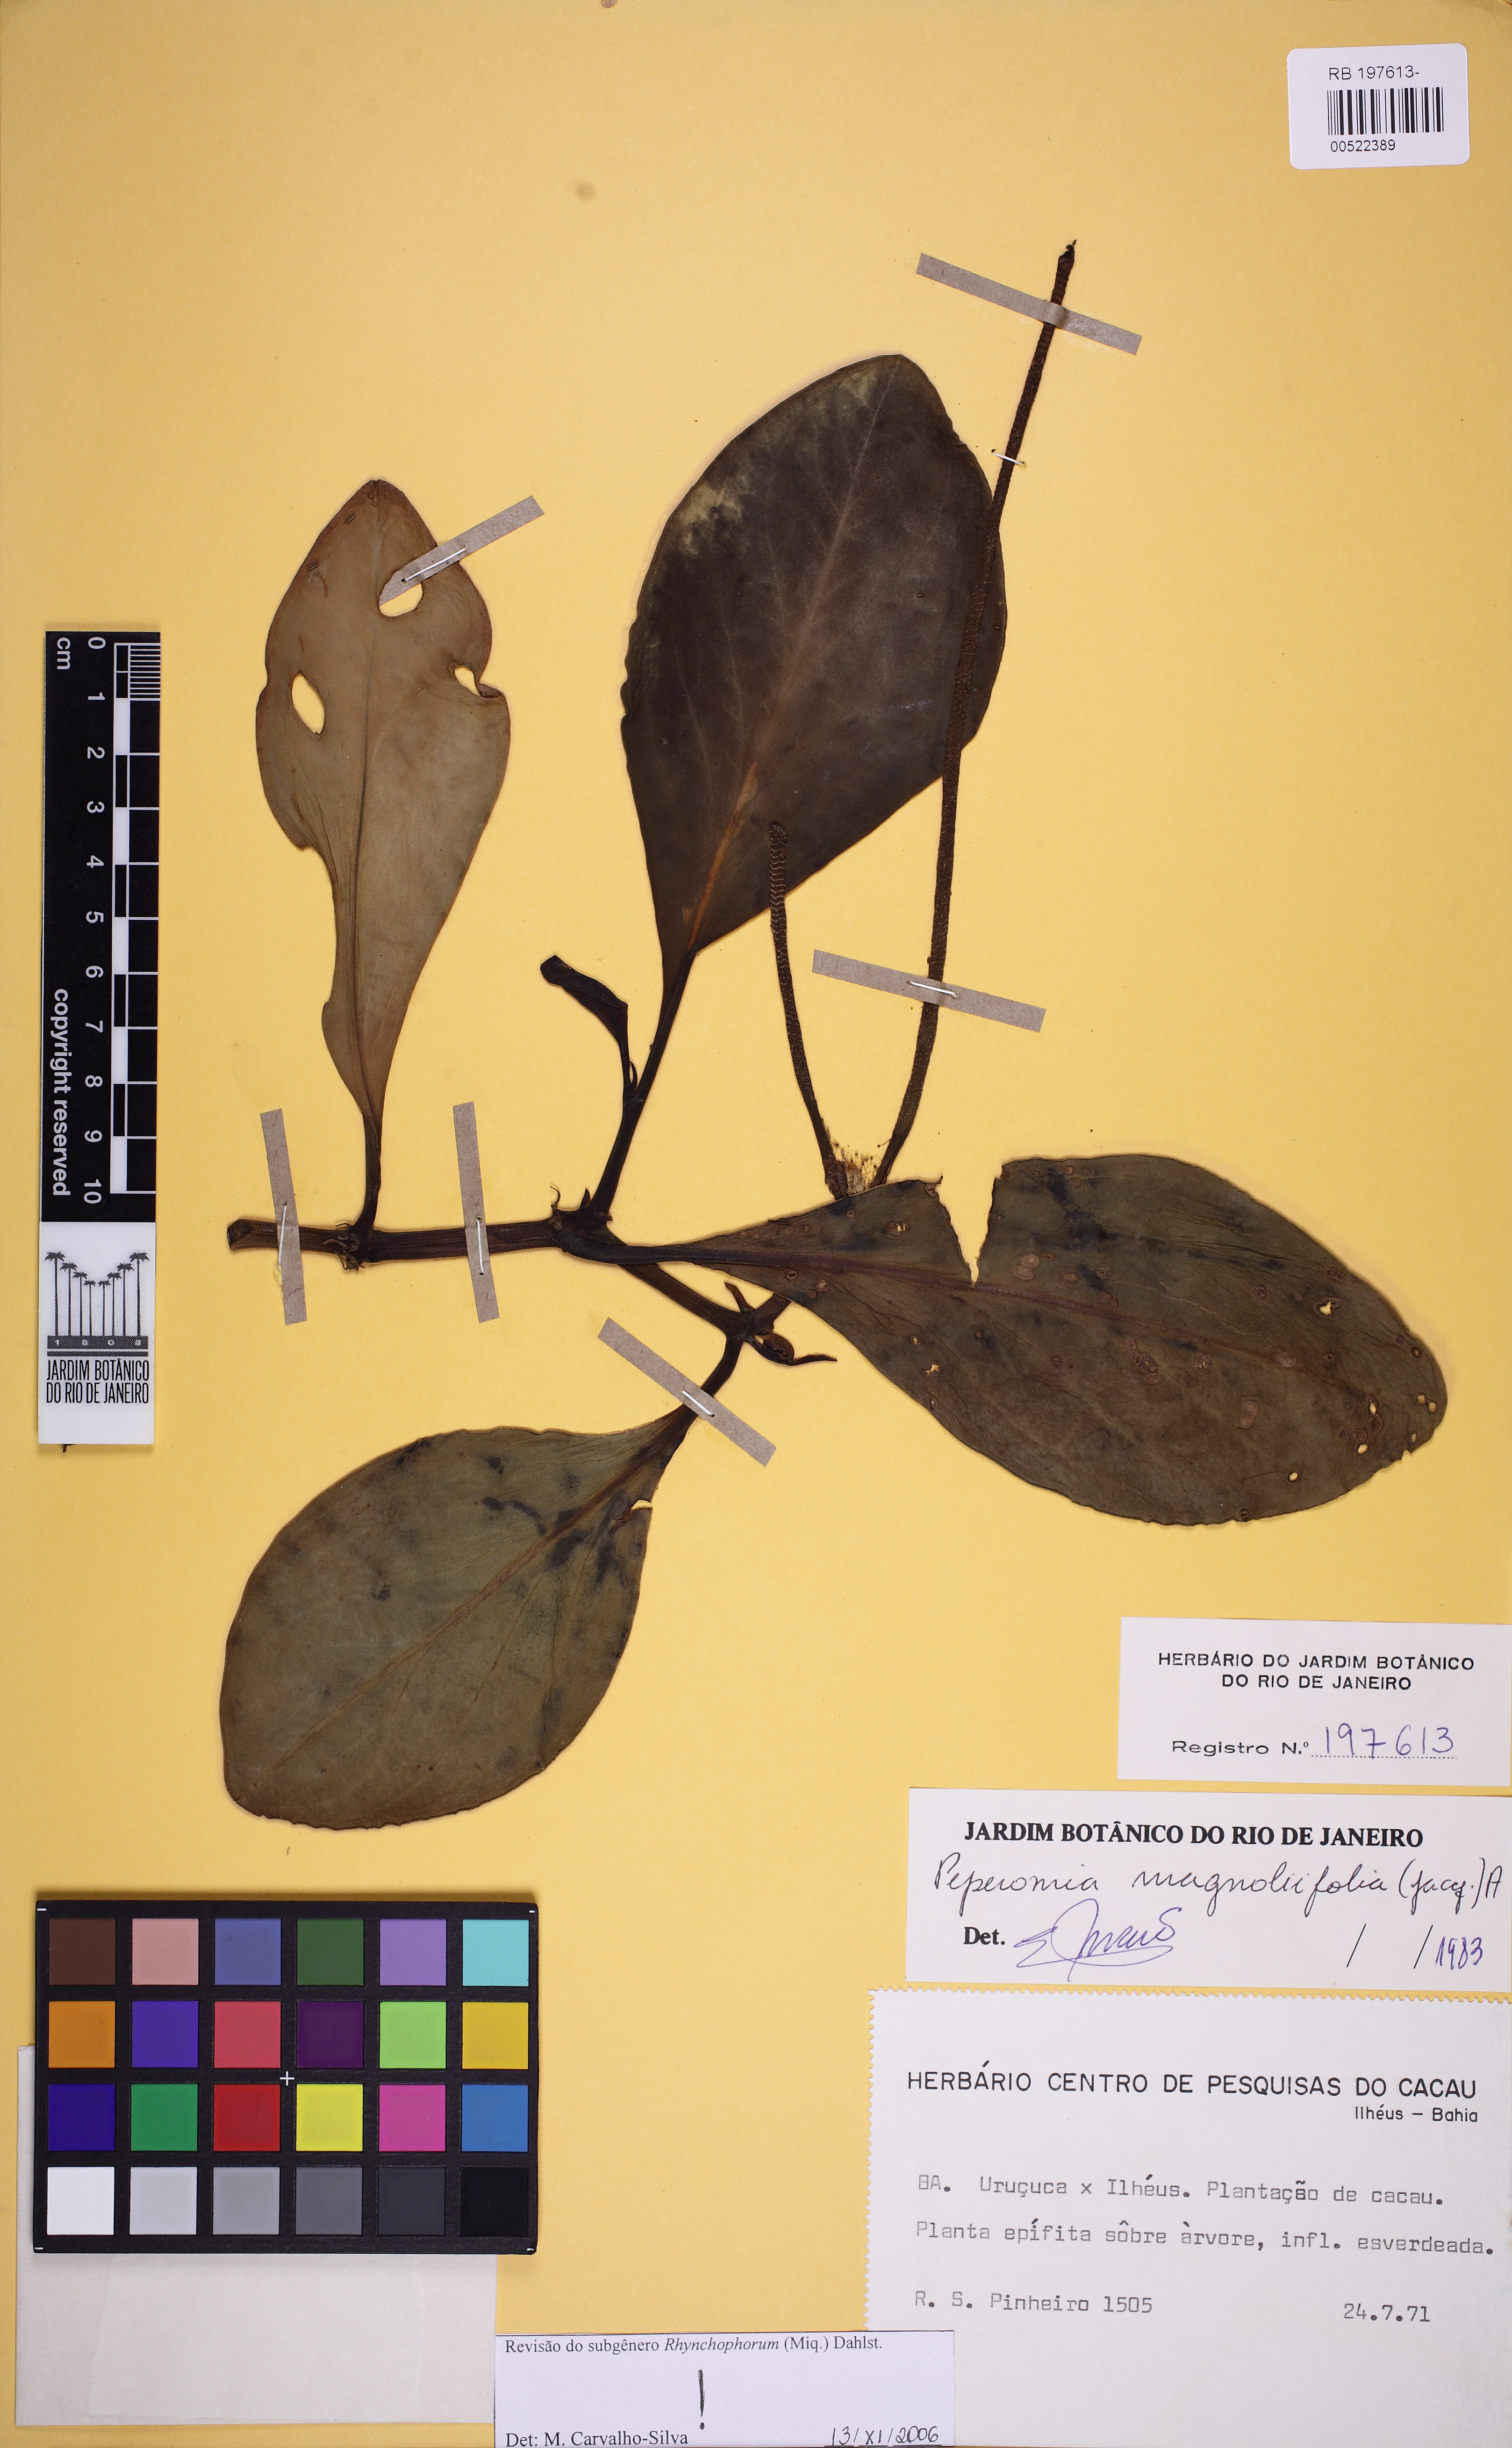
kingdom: Plantae
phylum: Tracheophyta
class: Magnoliopsida
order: Piperales
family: Piperaceae
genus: Peperomia
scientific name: Peperomia magnoliifolia
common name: Spoonleaf peperomia
